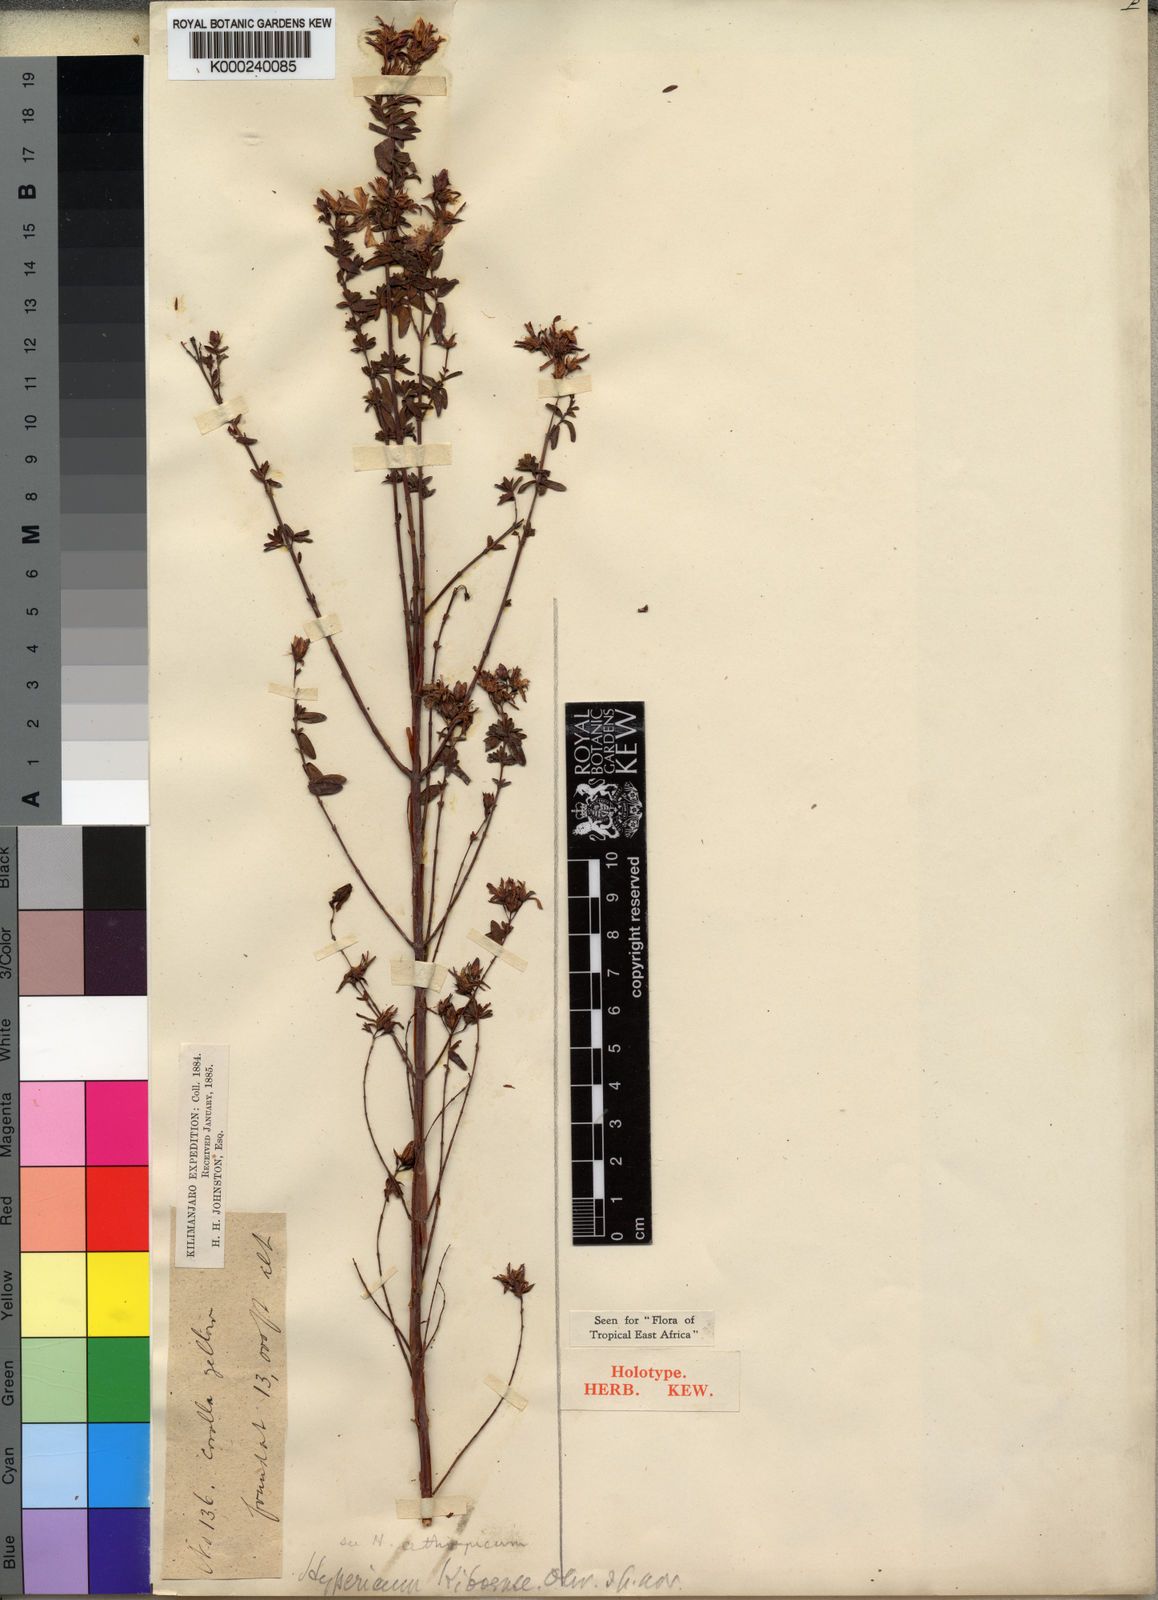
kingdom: Plantae
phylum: Tracheophyta
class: Magnoliopsida
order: Malpighiales
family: Hypericaceae
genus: Hypericum
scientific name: Hypericum
